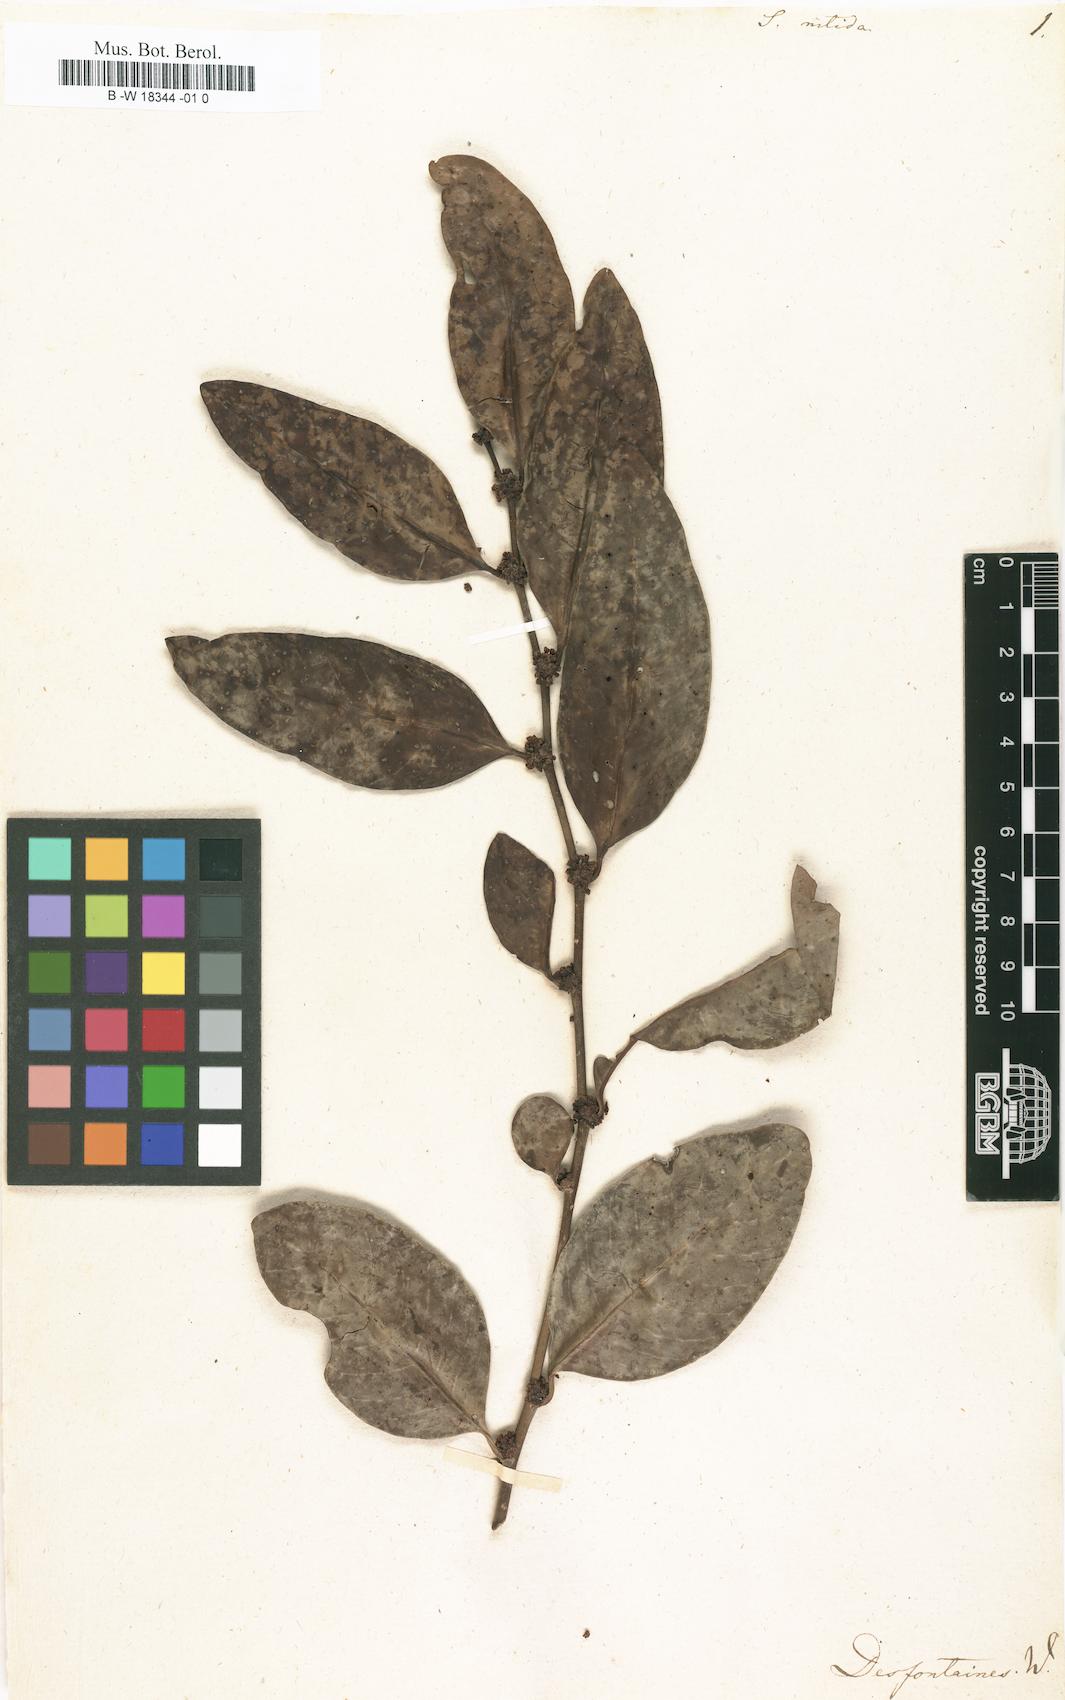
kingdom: Plantae
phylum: Tracheophyta
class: Magnoliopsida
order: Malpighiales
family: Phyllanthaceae
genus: Securinega
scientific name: Securinega durissima
